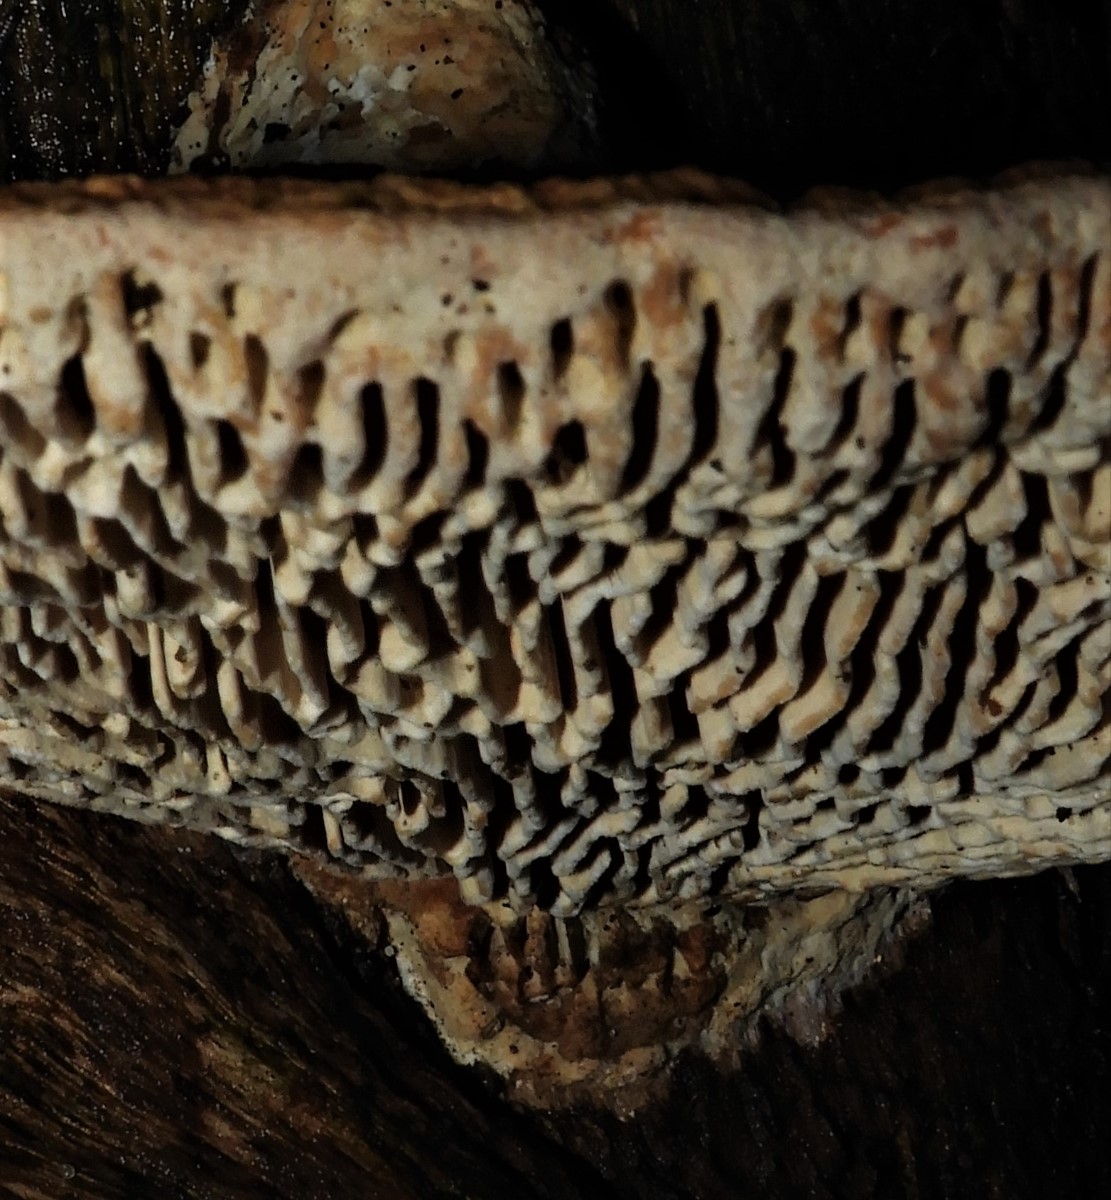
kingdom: Fungi
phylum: Basidiomycota
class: Agaricomycetes
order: Polyporales
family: Fomitopsidaceae
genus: Daedalea
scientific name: Daedalea quercina
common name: ege-labyrintsvamp
